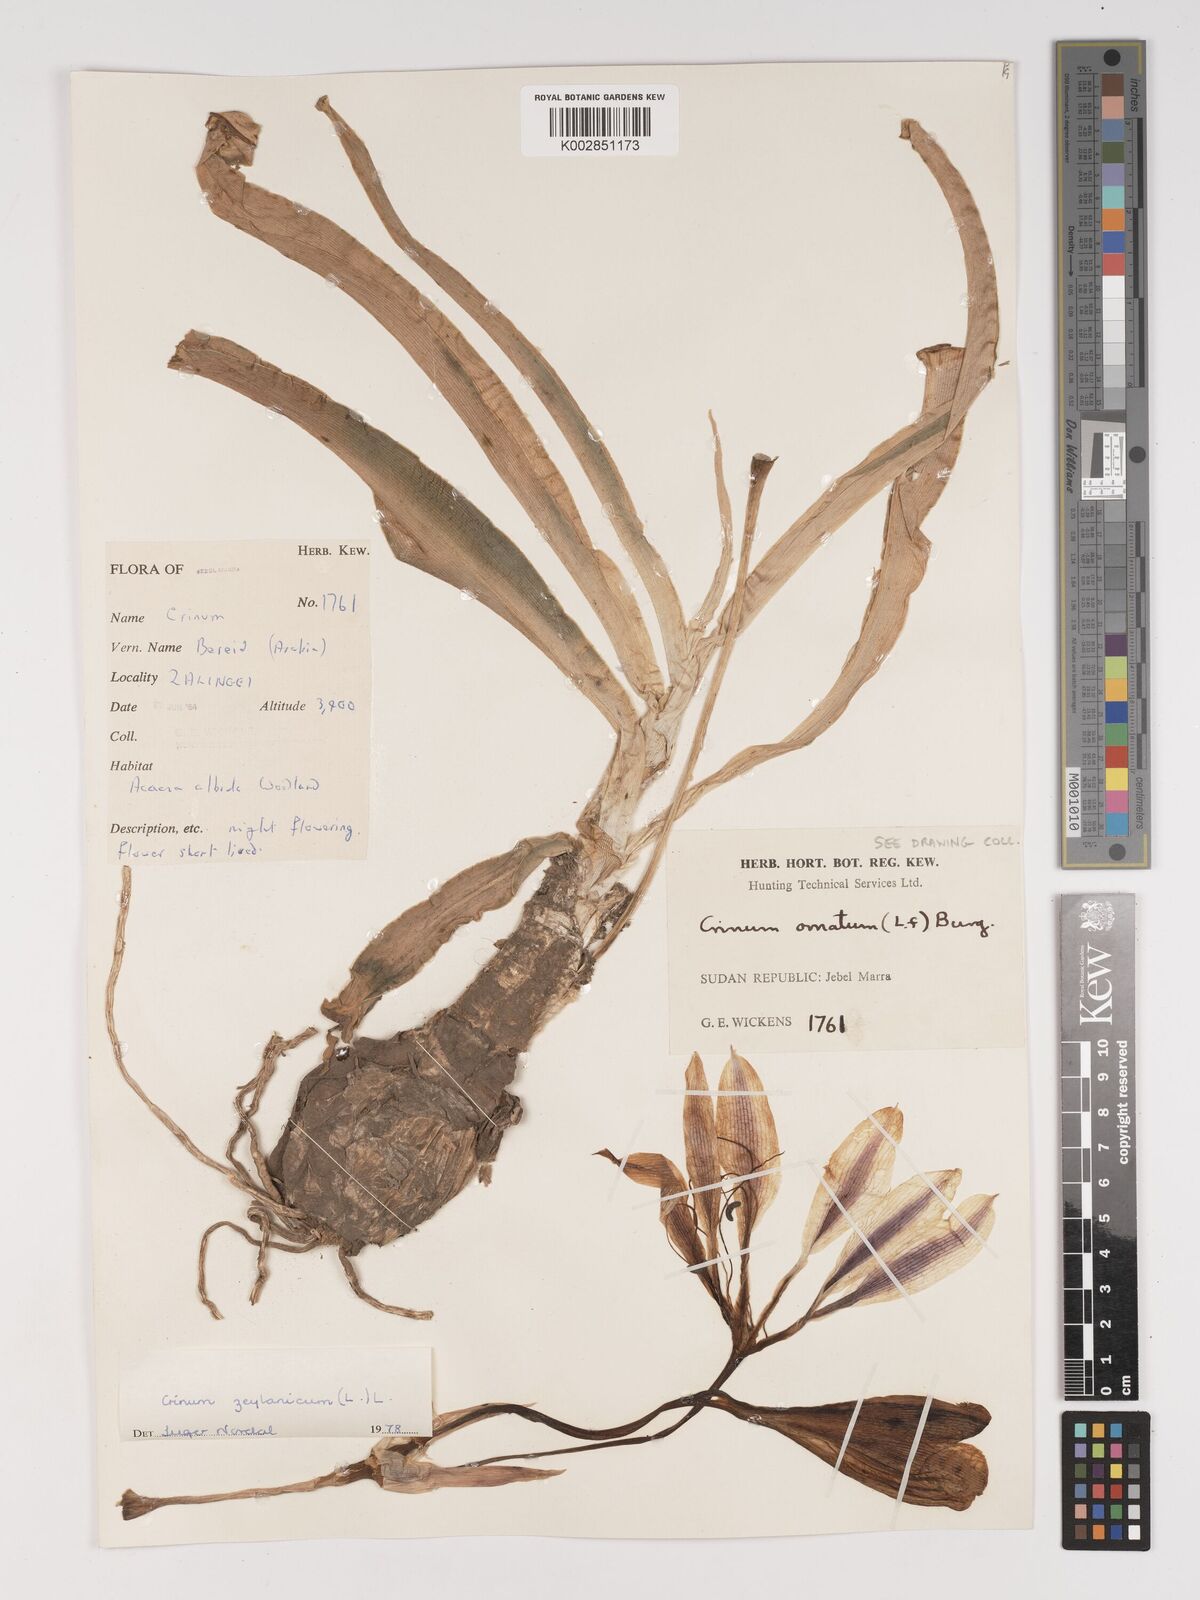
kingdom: Plantae
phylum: Tracheophyta
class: Liliopsida
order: Asparagales
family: Amaryllidaceae
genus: Crinum
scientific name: Crinum zeylanicum
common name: Ceylon swamplily
